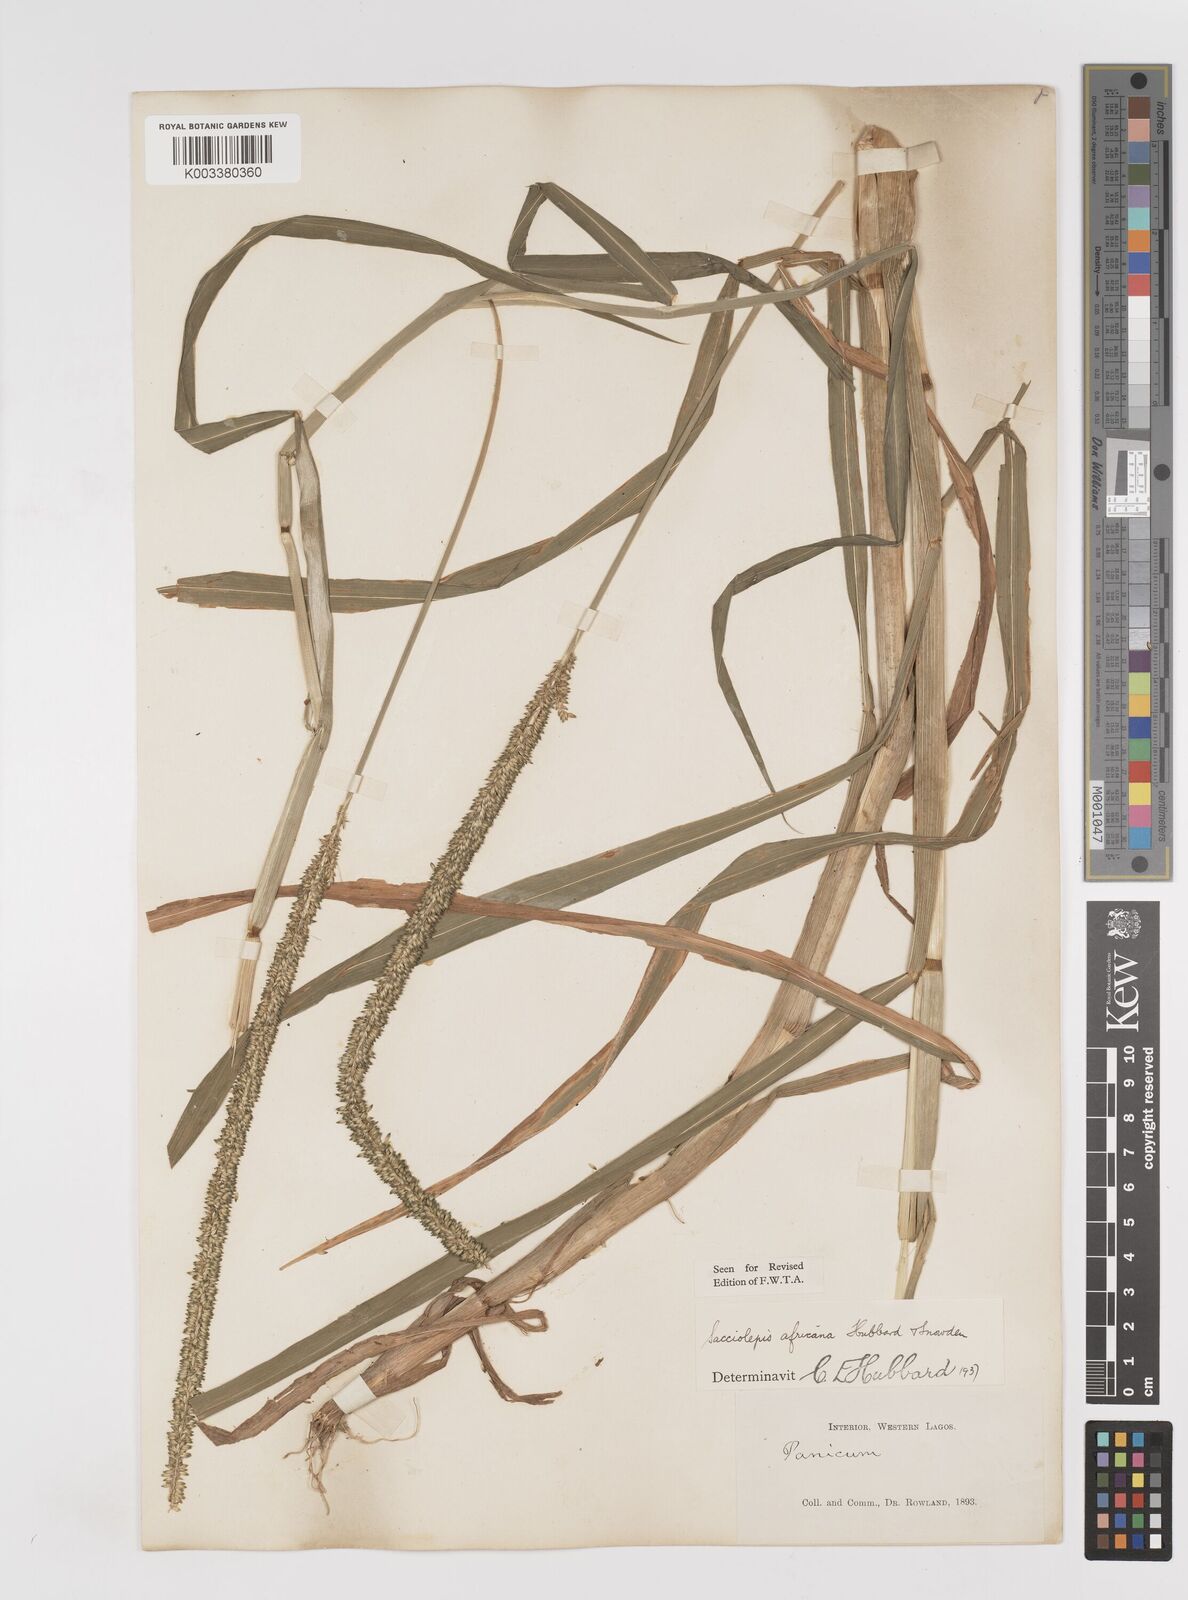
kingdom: Plantae
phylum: Tracheophyta
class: Liliopsida
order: Poales
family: Poaceae
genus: Sacciolepis
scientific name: Sacciolepis africana
